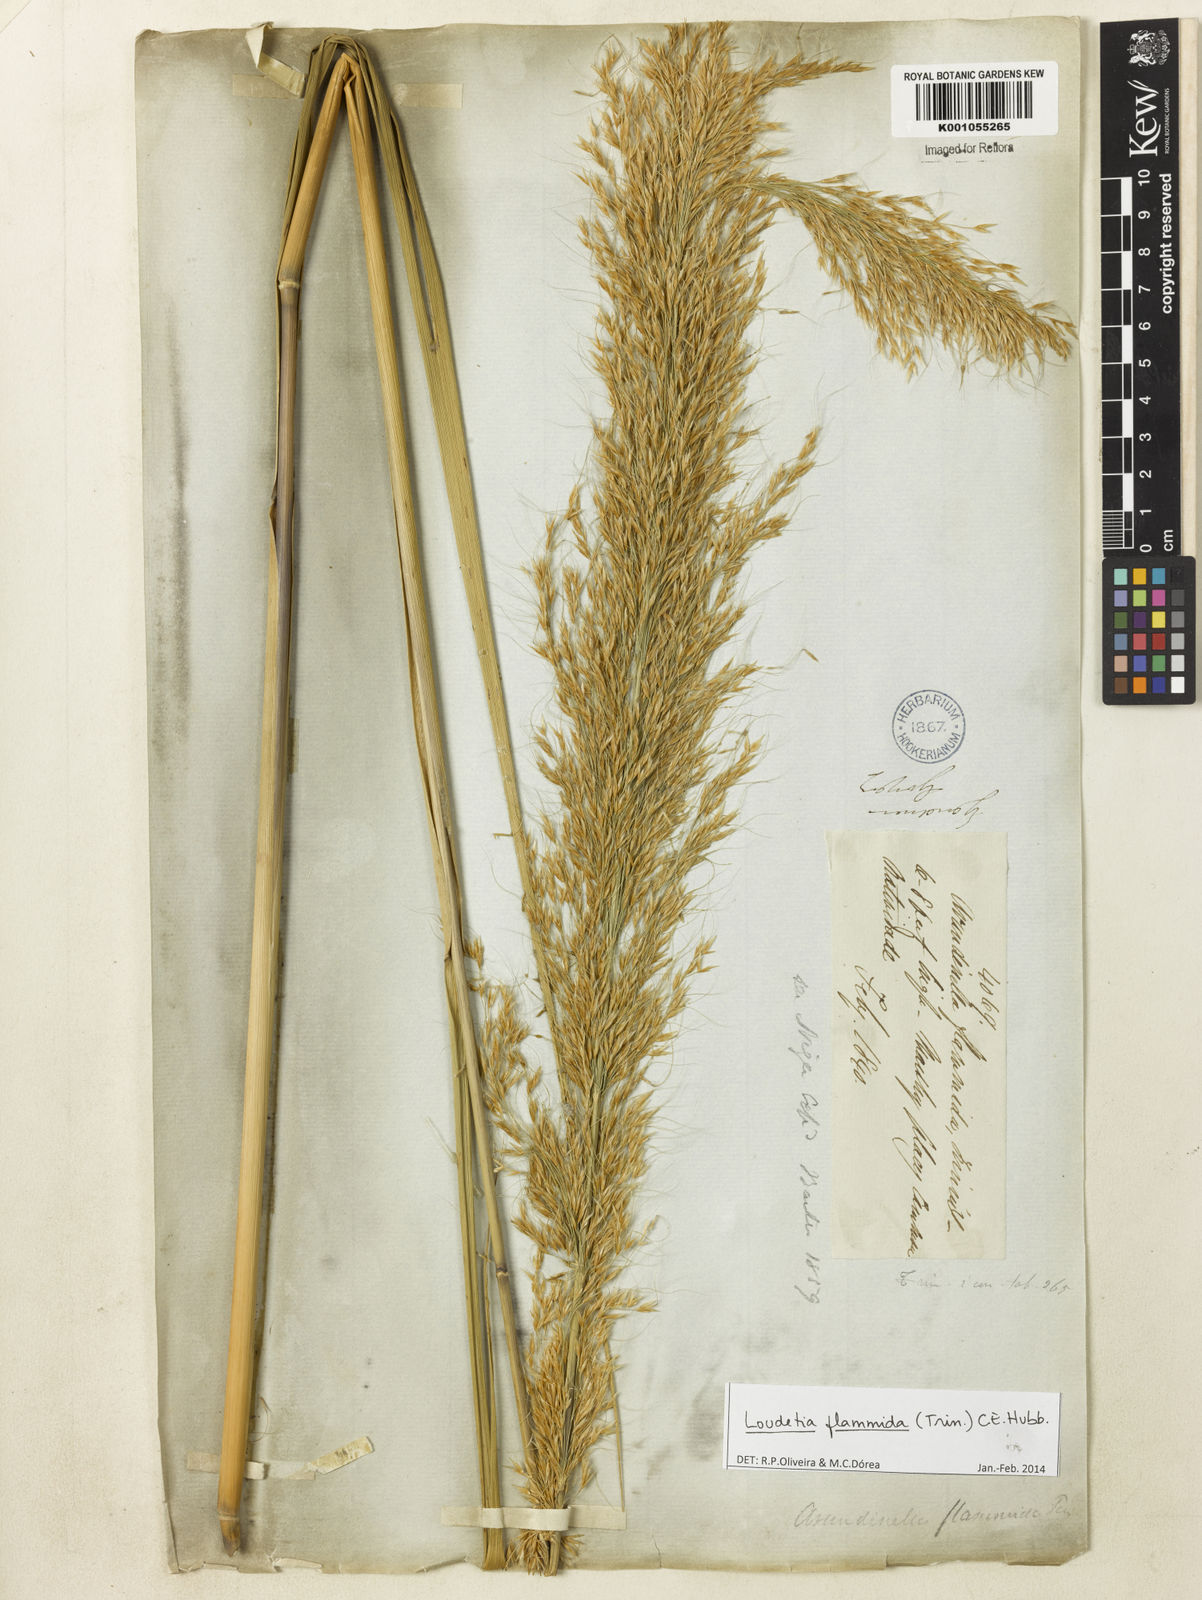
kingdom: Plantae
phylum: Tracheophyta
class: Liliopsida
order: Poales
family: Poaceae
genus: Loudetia
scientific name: Loudetia flammida
